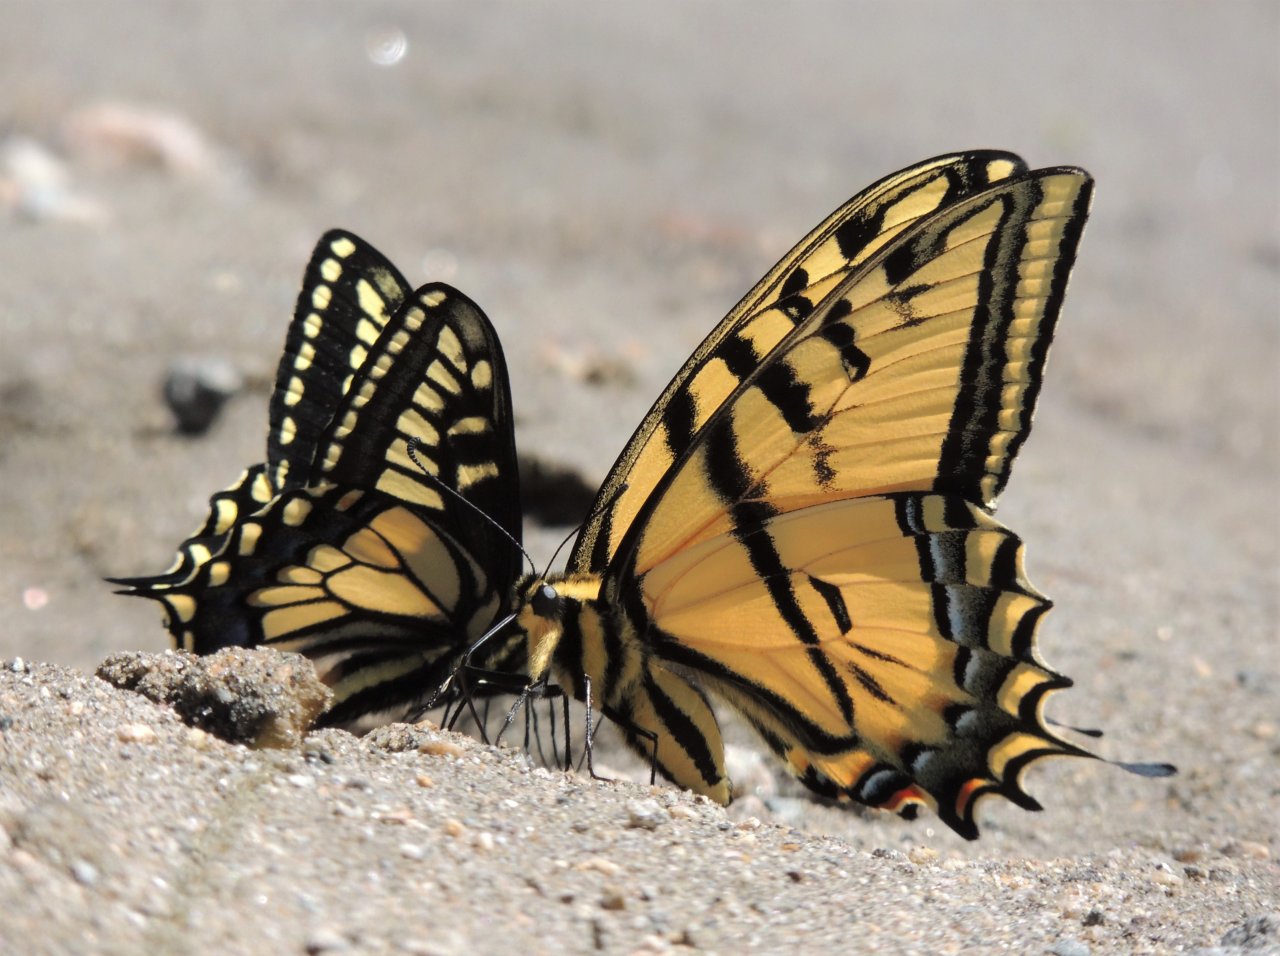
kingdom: Animalia
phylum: Arthropoda
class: Insecta
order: Lepidoptera
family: Papilionidae
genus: Papilio
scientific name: Papilio multicaudata
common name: Two-tailed Swallowtail
